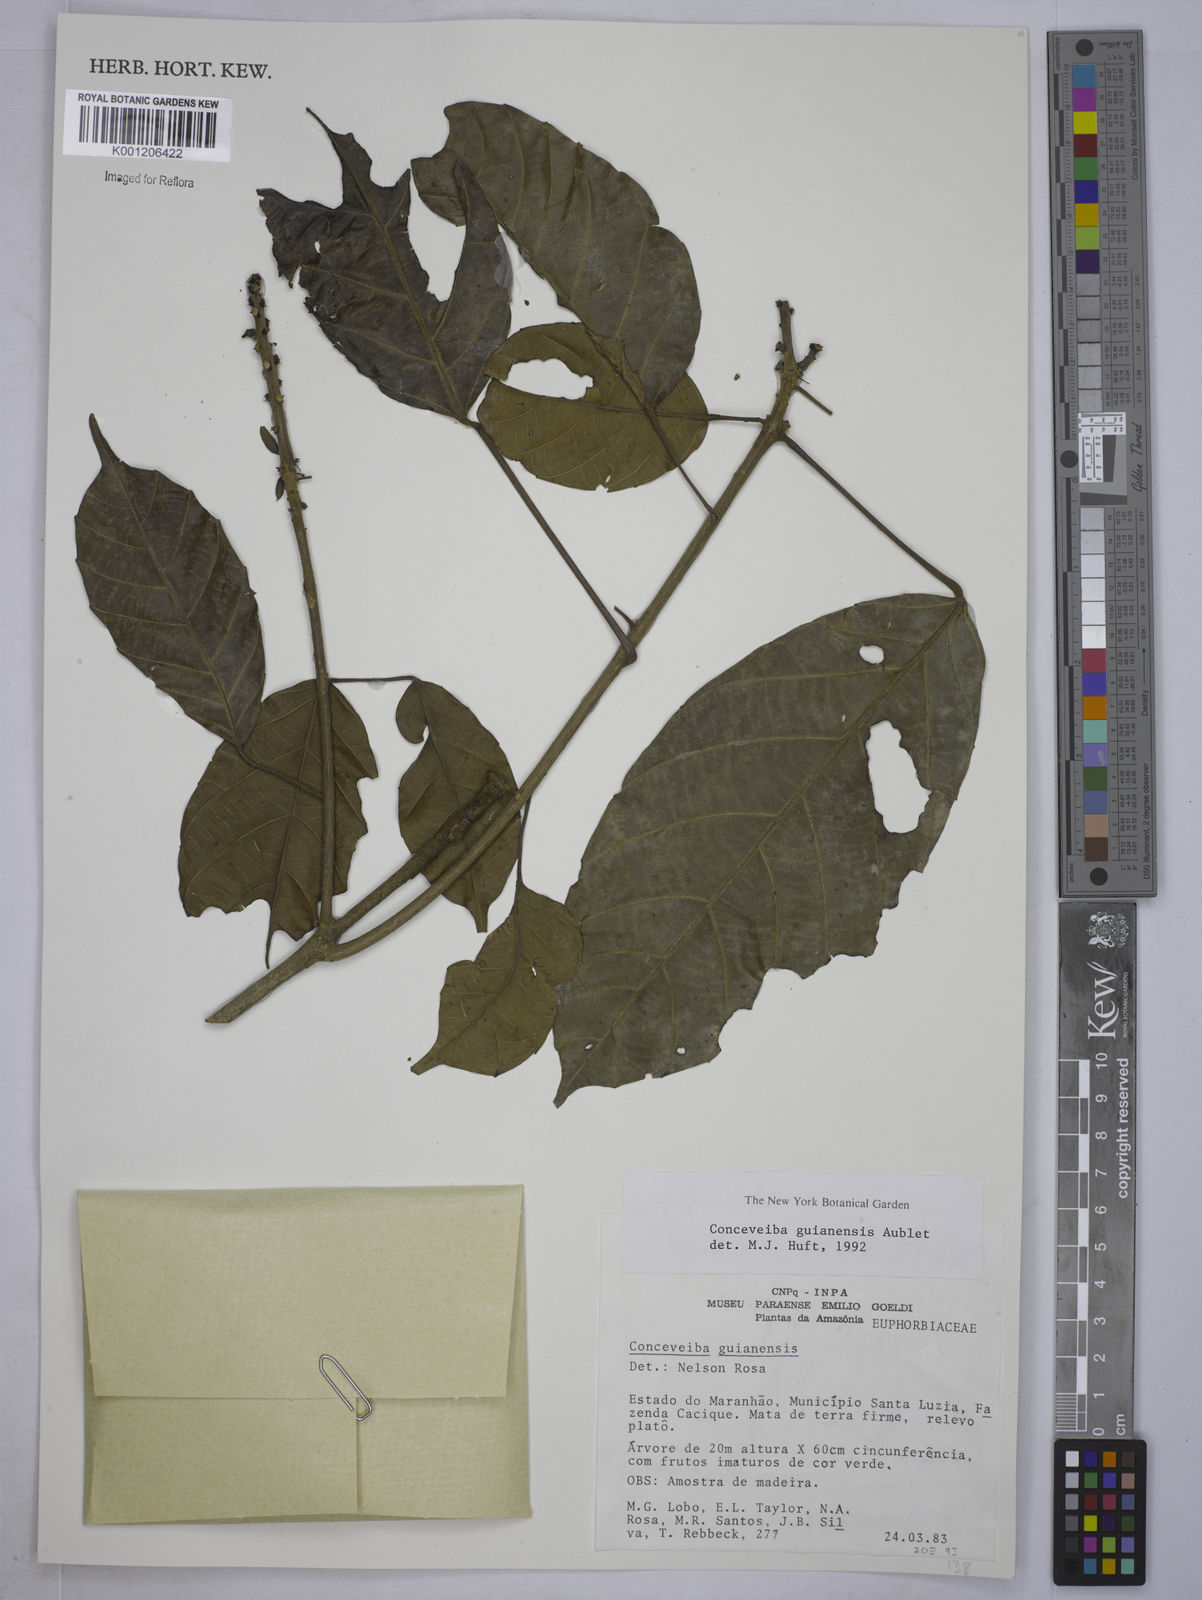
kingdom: Plantae
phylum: Tracheophyta
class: Magnoliopsida
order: Malpighiales
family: Euphorbiaceae
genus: Conceveiba
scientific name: Conceveiba guianensis
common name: Poatoru
